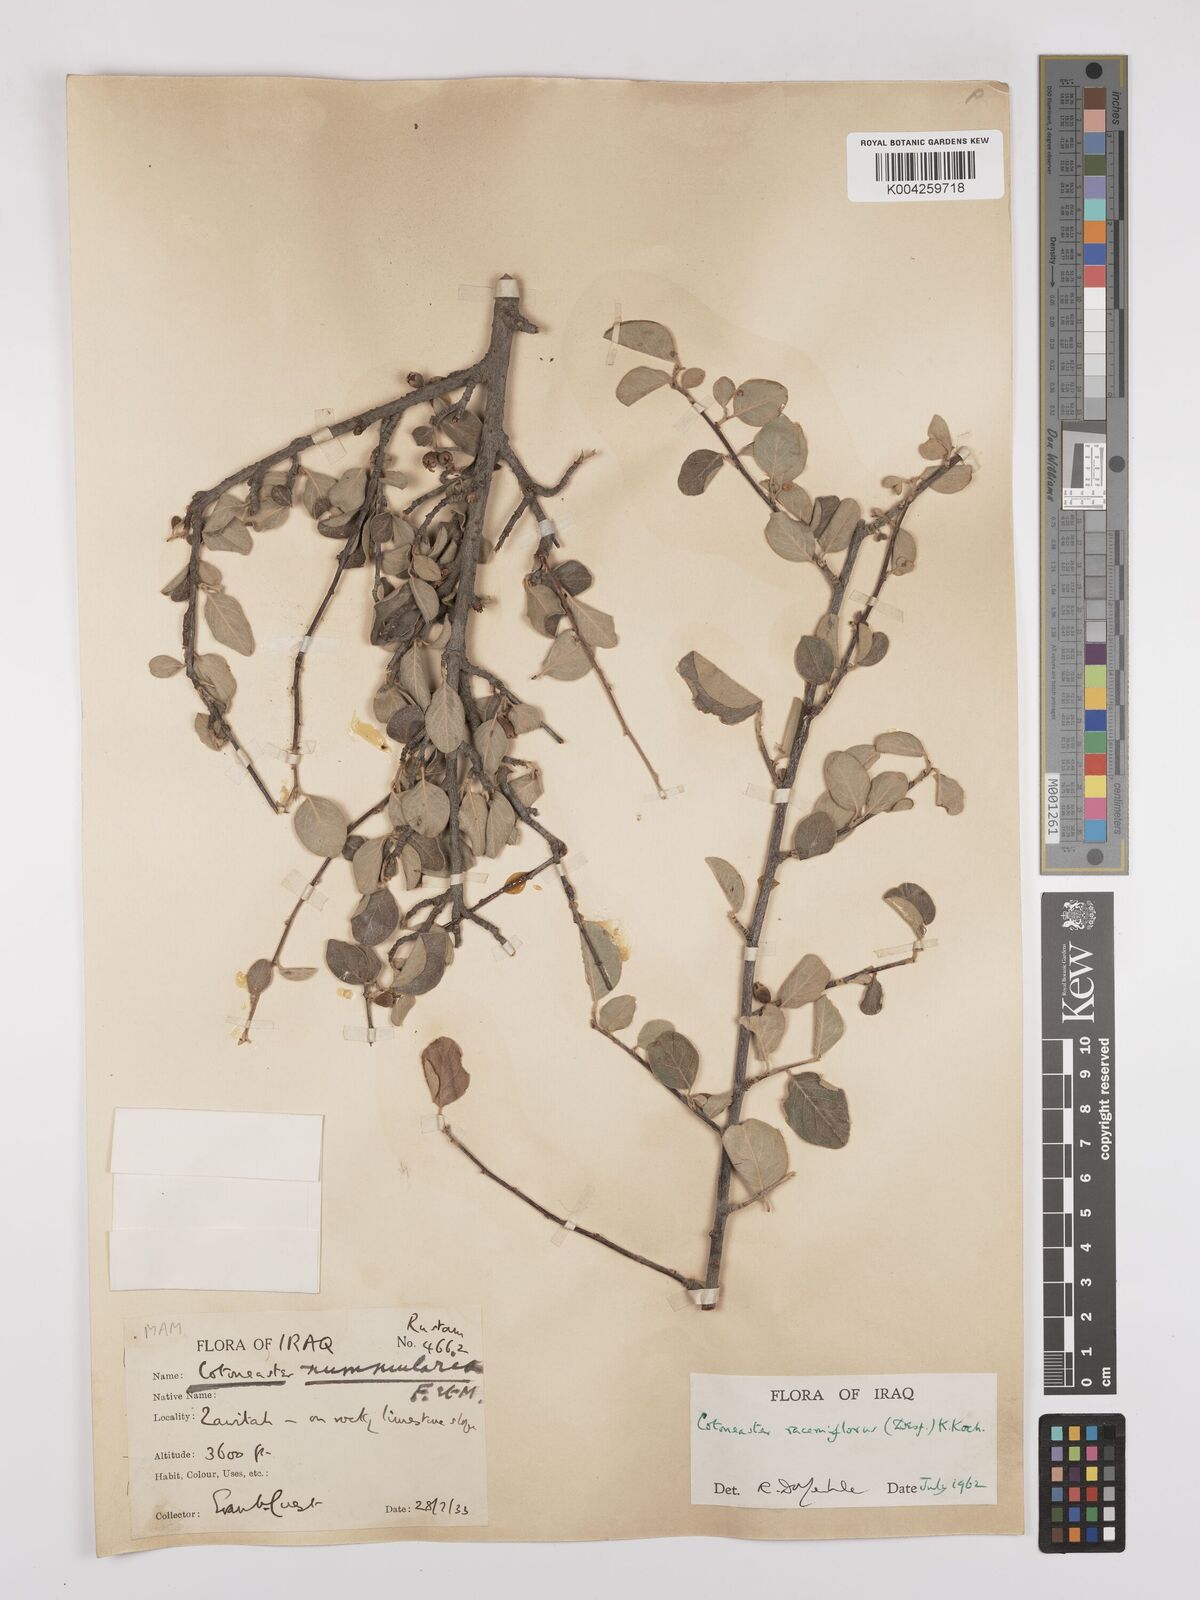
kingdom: Plantae
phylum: Tracheophyta
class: Magnoliopsida
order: Rosales
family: Rosaceae
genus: Cotoneaster
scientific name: Cotoneaster racemiflorus
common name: Cluster-flower cotoneaster
